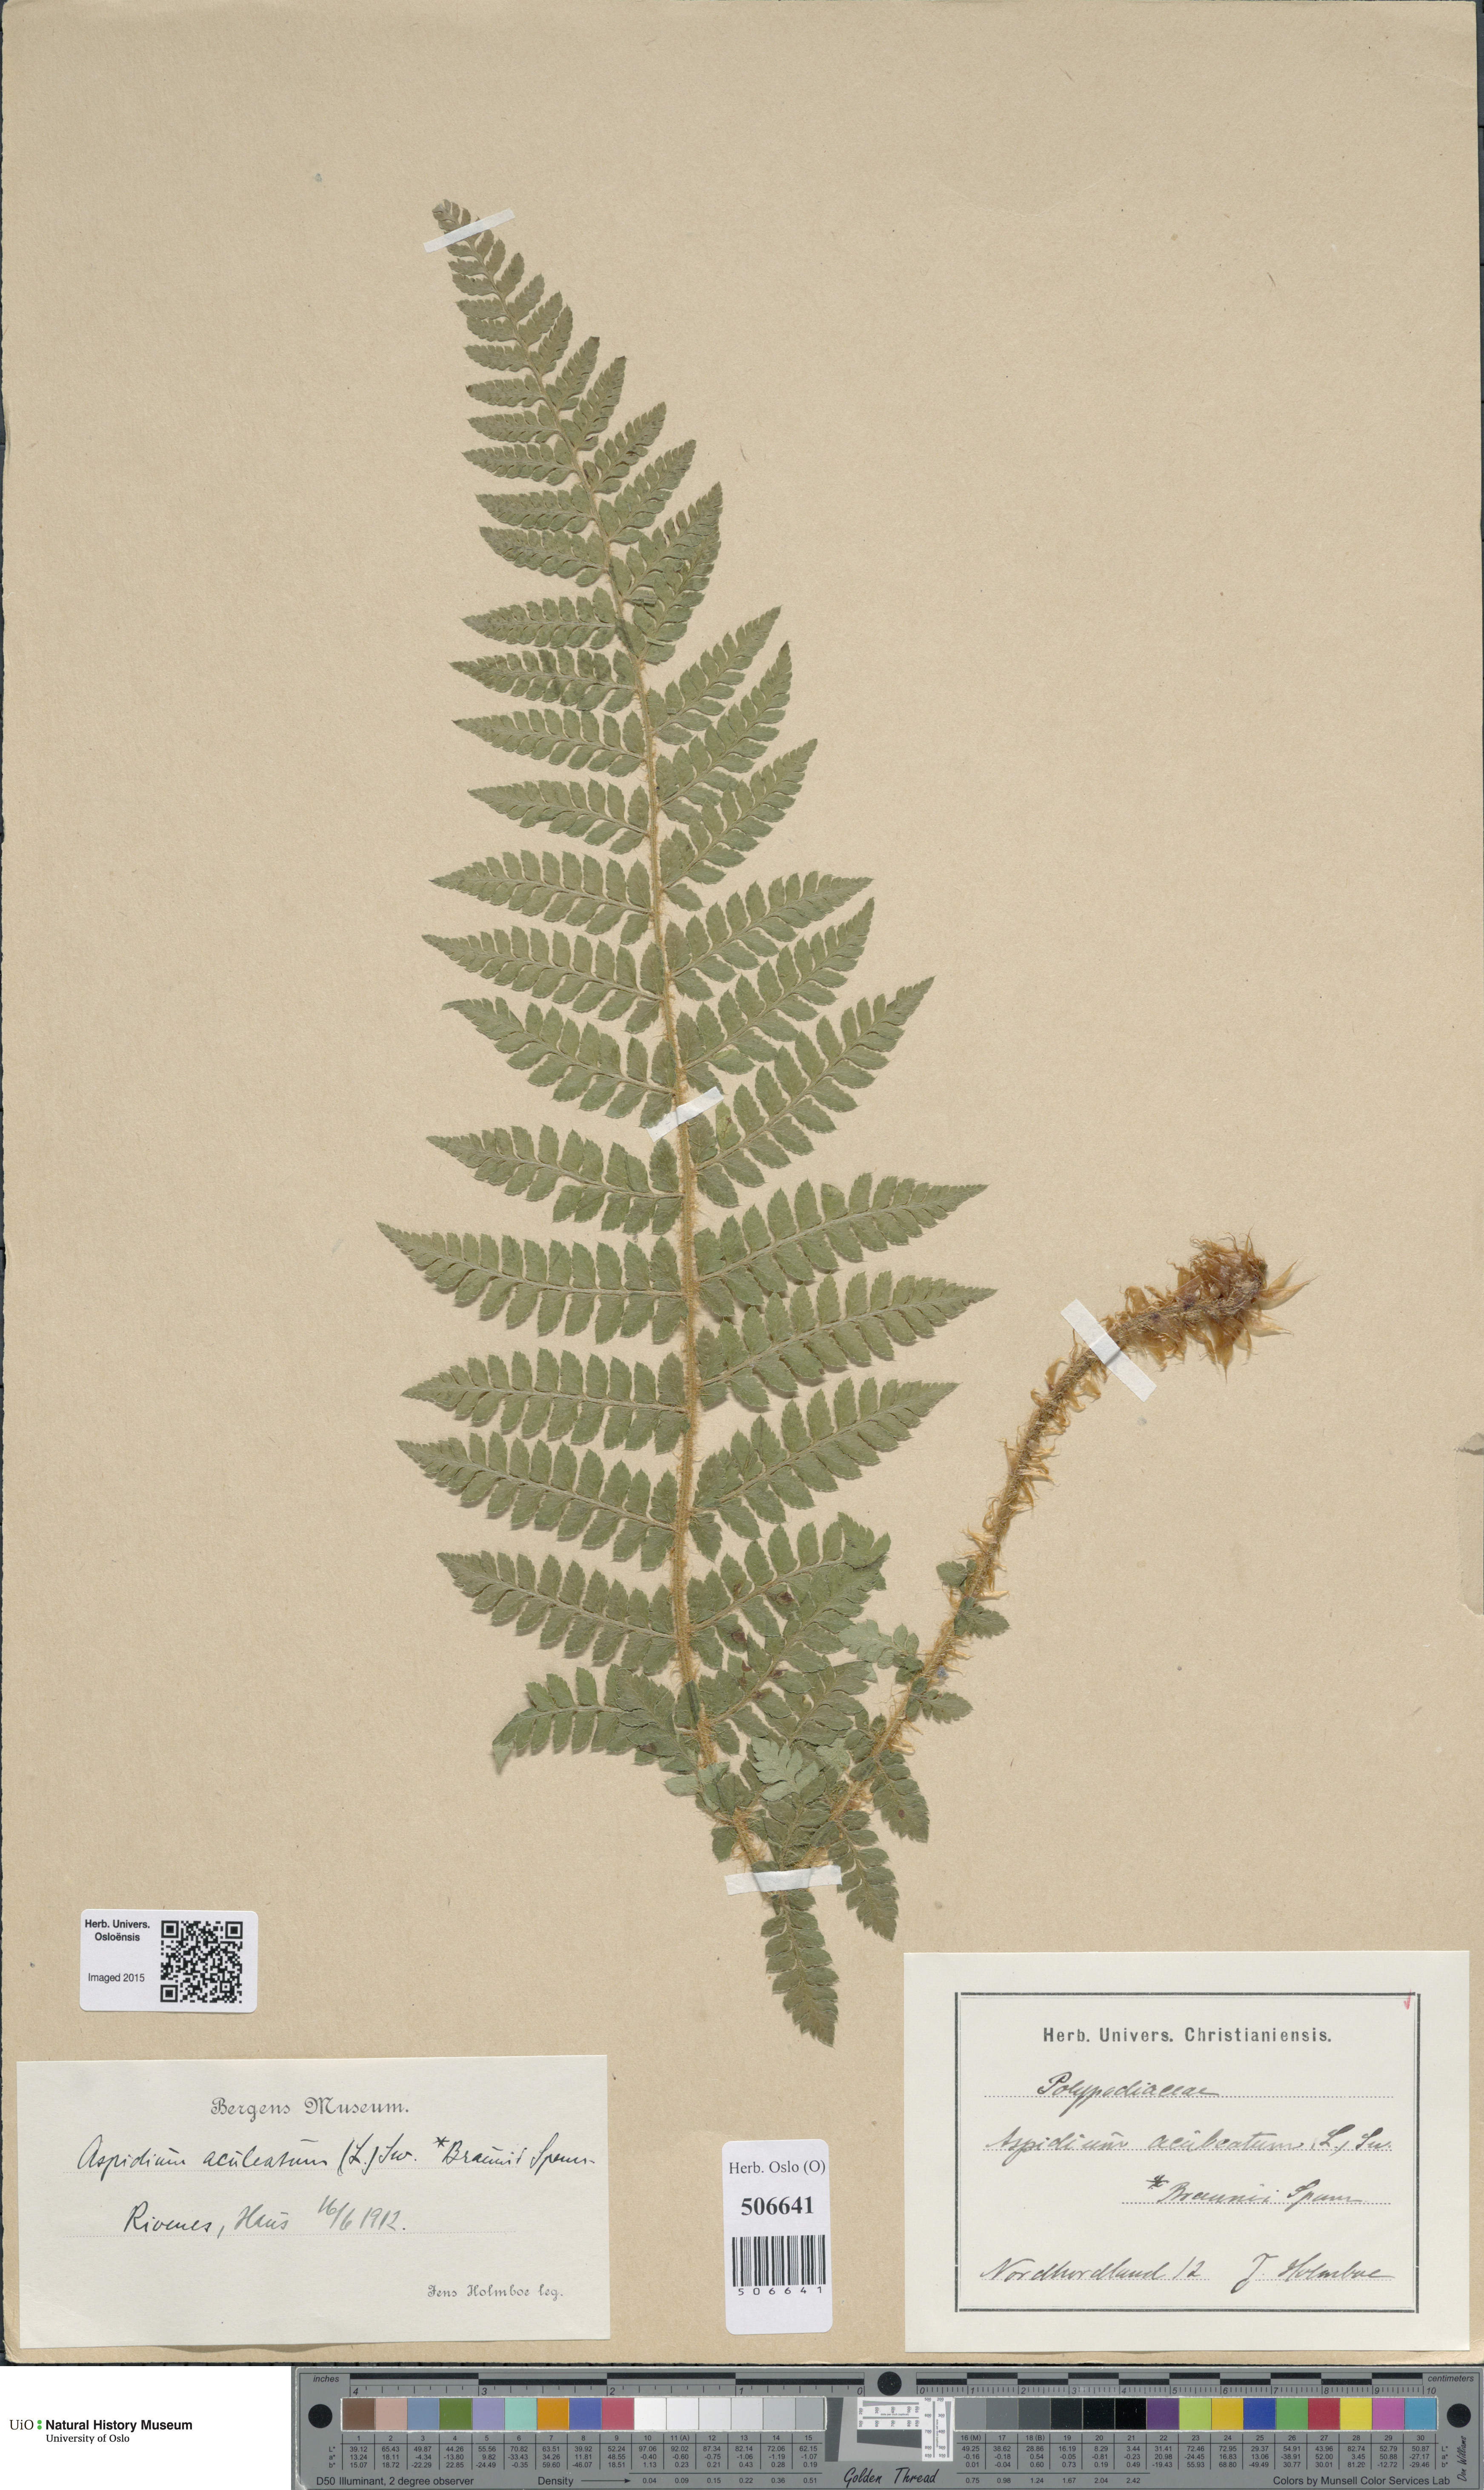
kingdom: Plantae
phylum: Tracheophyta
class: Polypodiopsida
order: Polypodiales
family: Dryopteridaceae
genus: Polystichum
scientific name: Polystichum braunii
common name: Braun's holly fern
